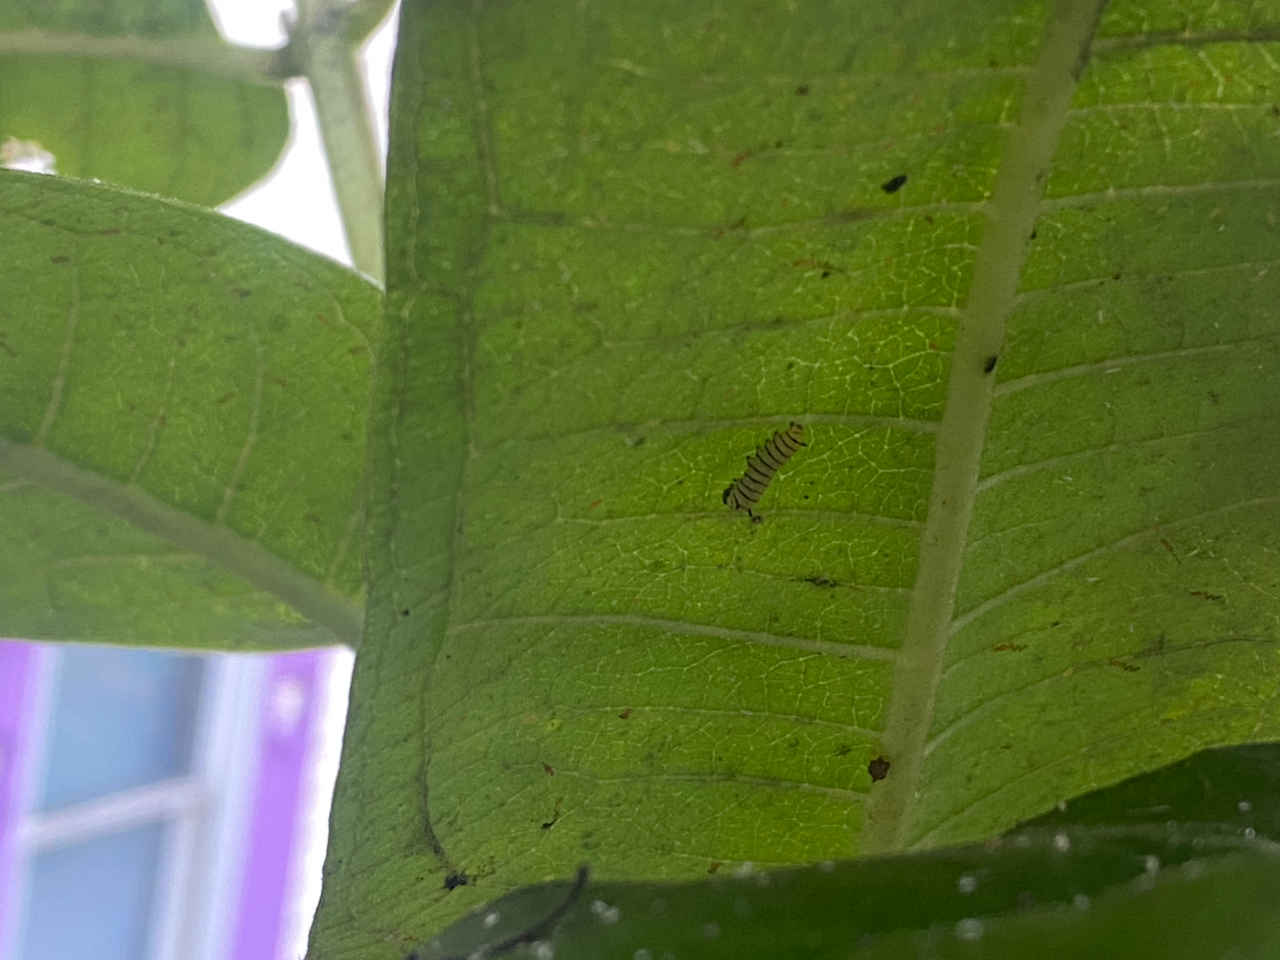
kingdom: Animalia
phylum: Arthropoda
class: Insecta
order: Lepidoptera
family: Nymphalidae
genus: Danaus
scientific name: Danaus plexippus
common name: Monarch
